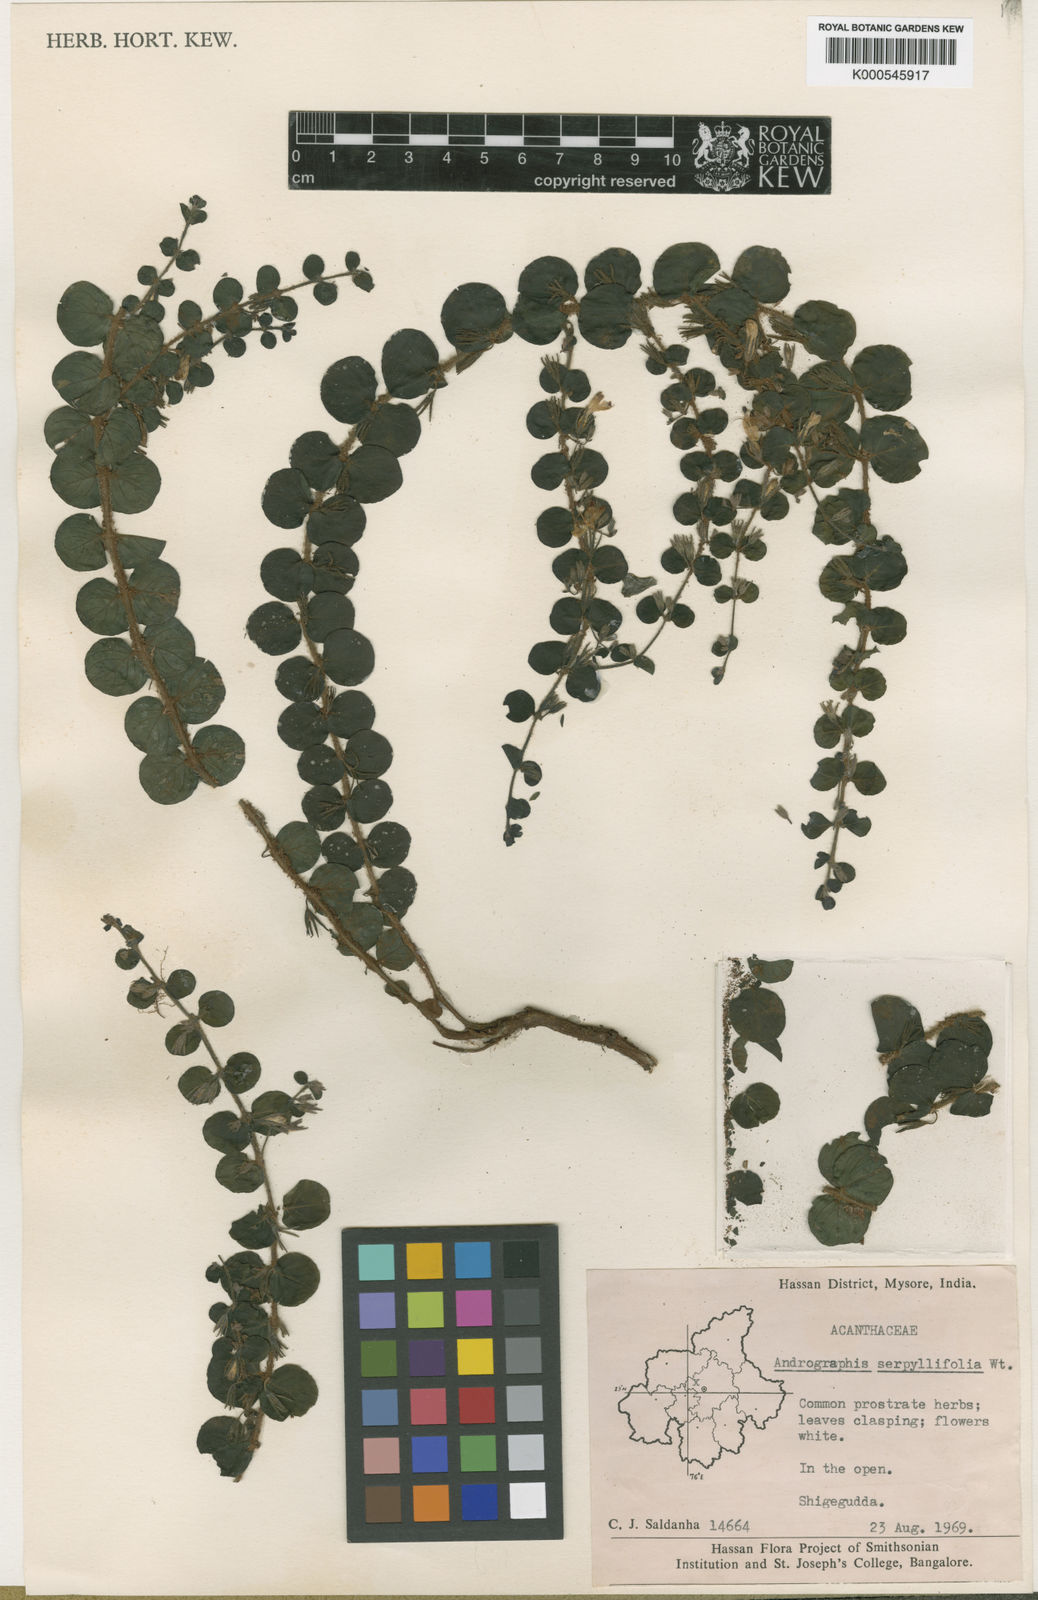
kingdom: Plantae
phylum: Tracheophyta
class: Magnoliopsida
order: Lamiales
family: Acanthaceae
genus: Andrographis
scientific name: Andrographis serpyllifolia
